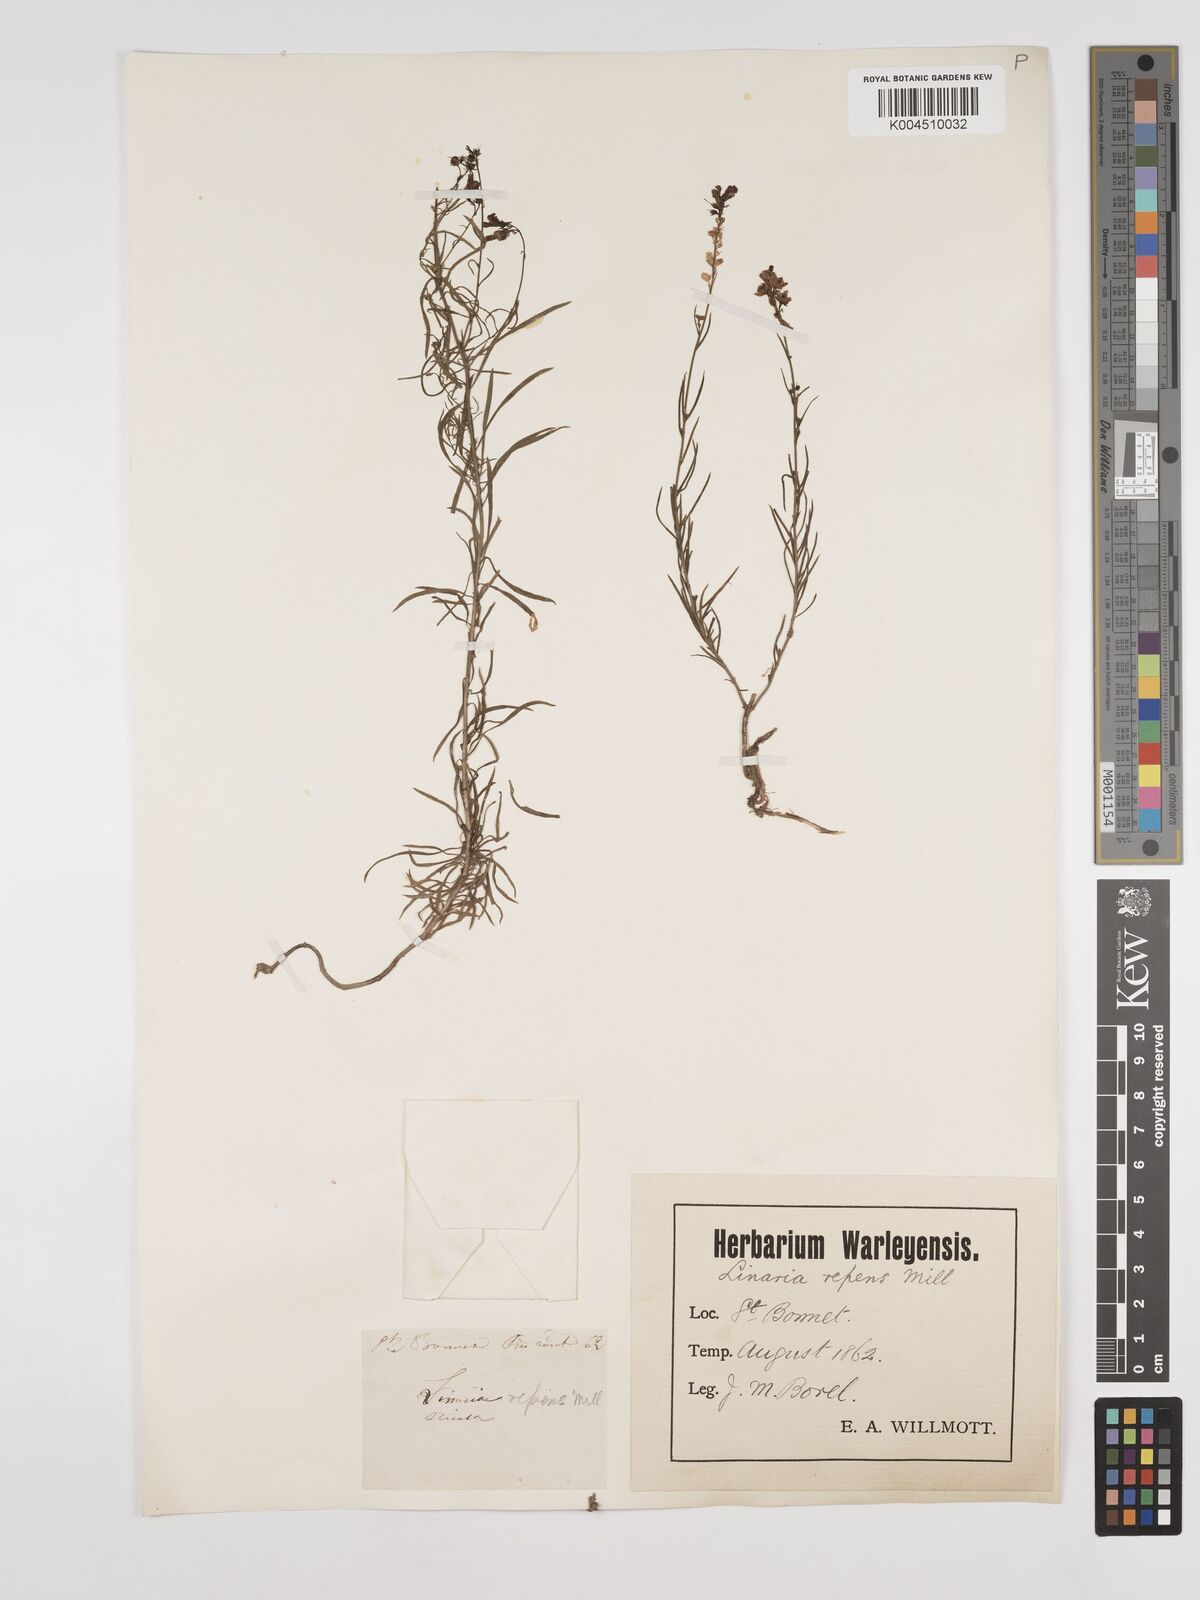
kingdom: Plantae
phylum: Tracheophyta
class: Magnoliopsida
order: Lamiales
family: Plantaginaceae
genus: Linaria
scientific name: Linaria repens
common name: Pale toadflax
